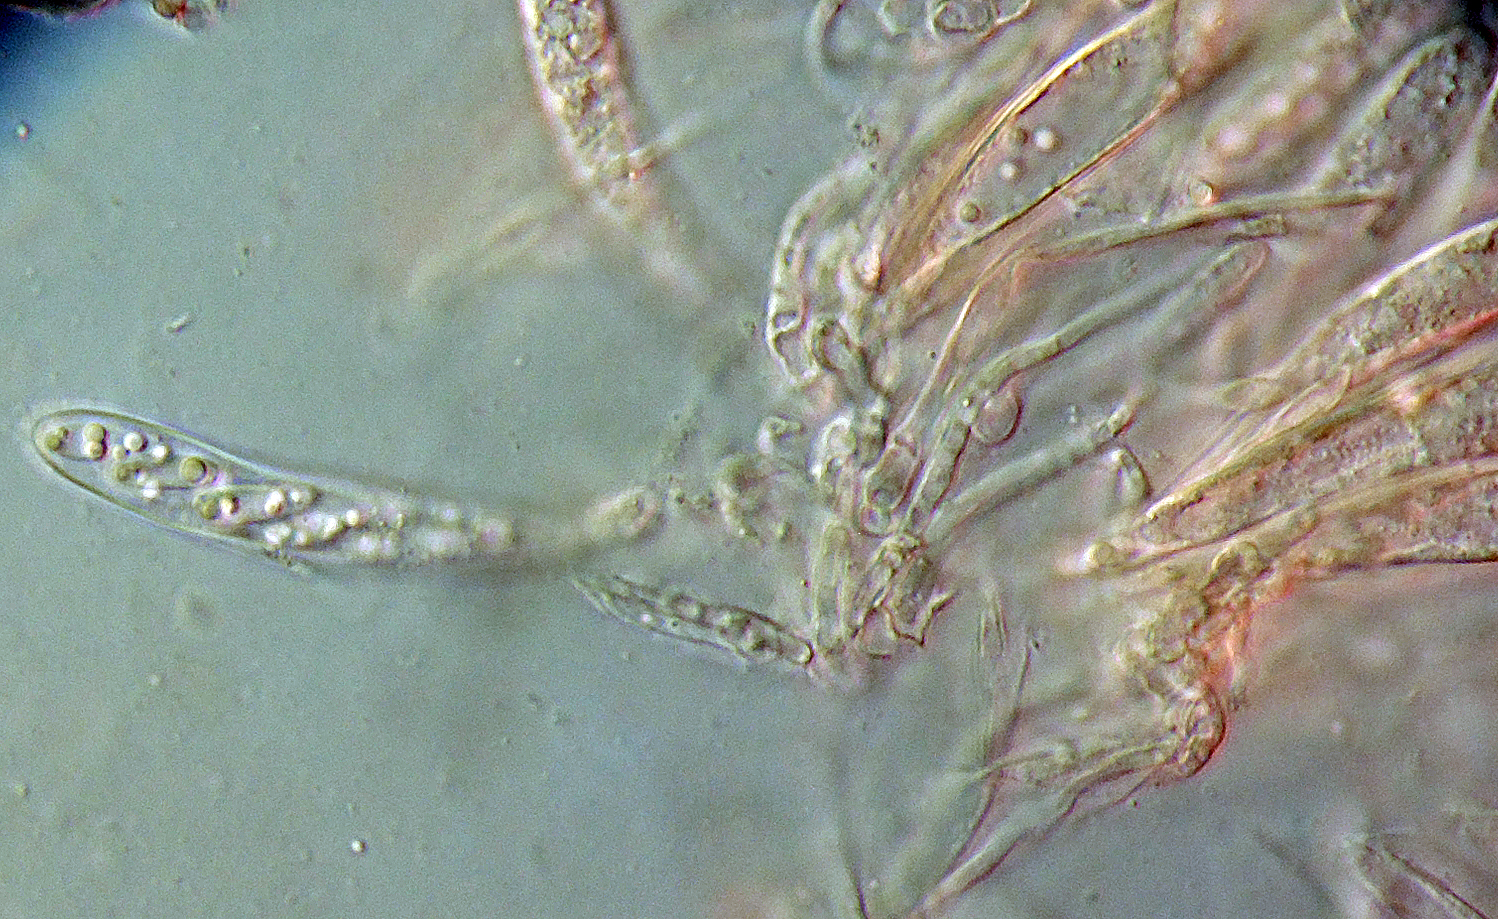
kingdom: Fungi
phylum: Ascomycota
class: Leotiomycetes
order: Helotiales
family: Hyaloscyphaceae
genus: Cistella
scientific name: Cistella grevillei
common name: lædergul sirskive
